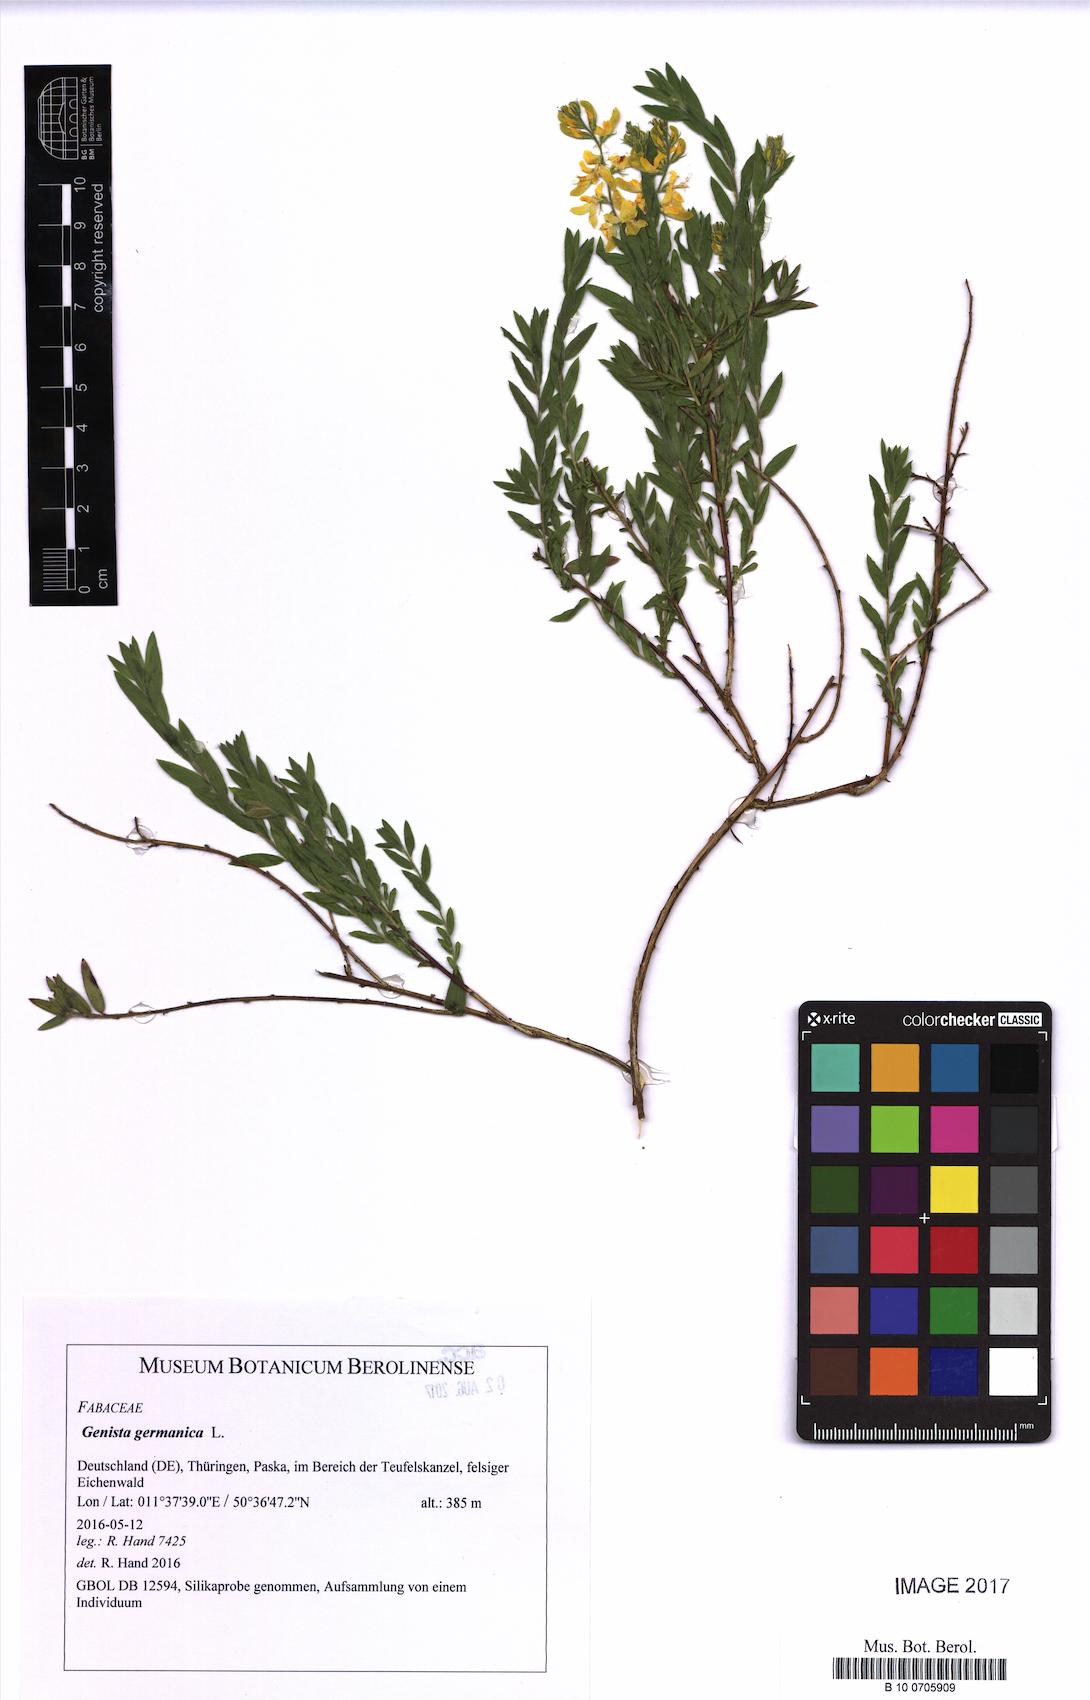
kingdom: Plantae
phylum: Tracheophyta
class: Magnoliopsida
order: Fabales
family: Fabaceae
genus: Genista
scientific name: Genista germanica
